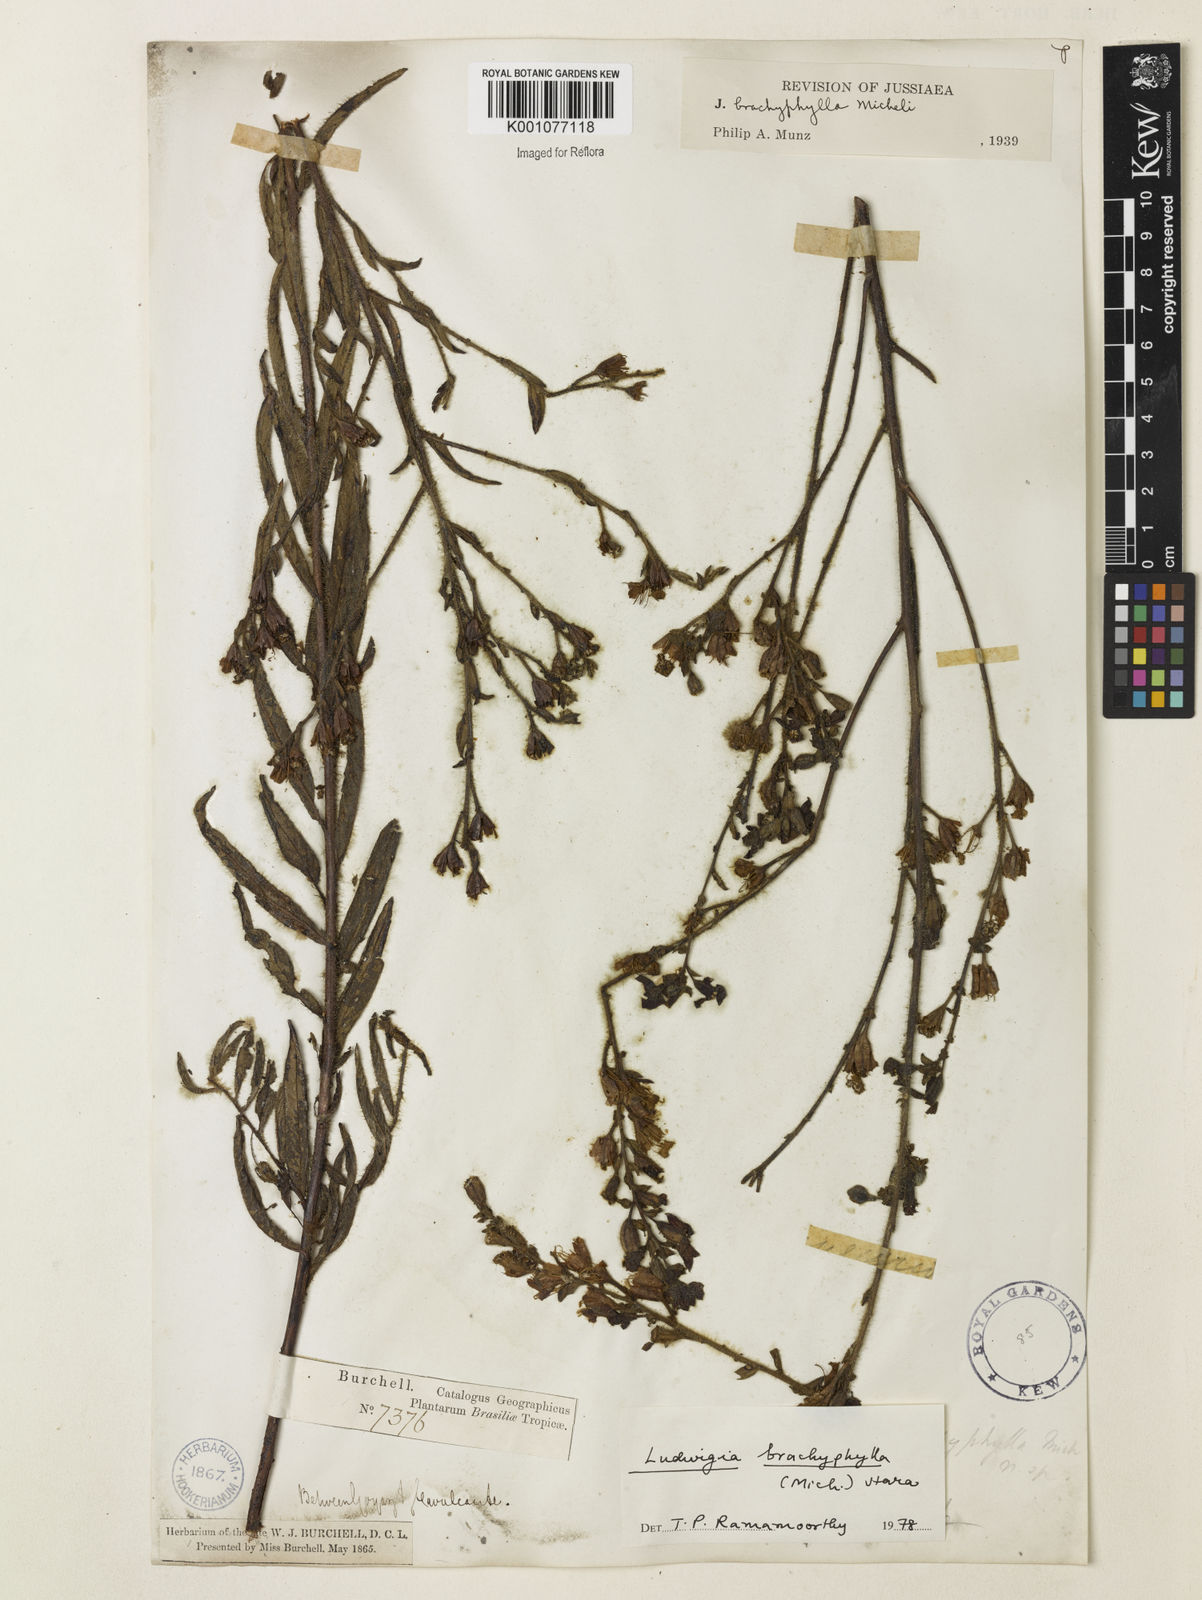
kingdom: Plantae
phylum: Tracheophyta
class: Magnoliopsida
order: Myrtales
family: Onagraceae
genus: Ludwigia
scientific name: Ludwigia brachyphylla
